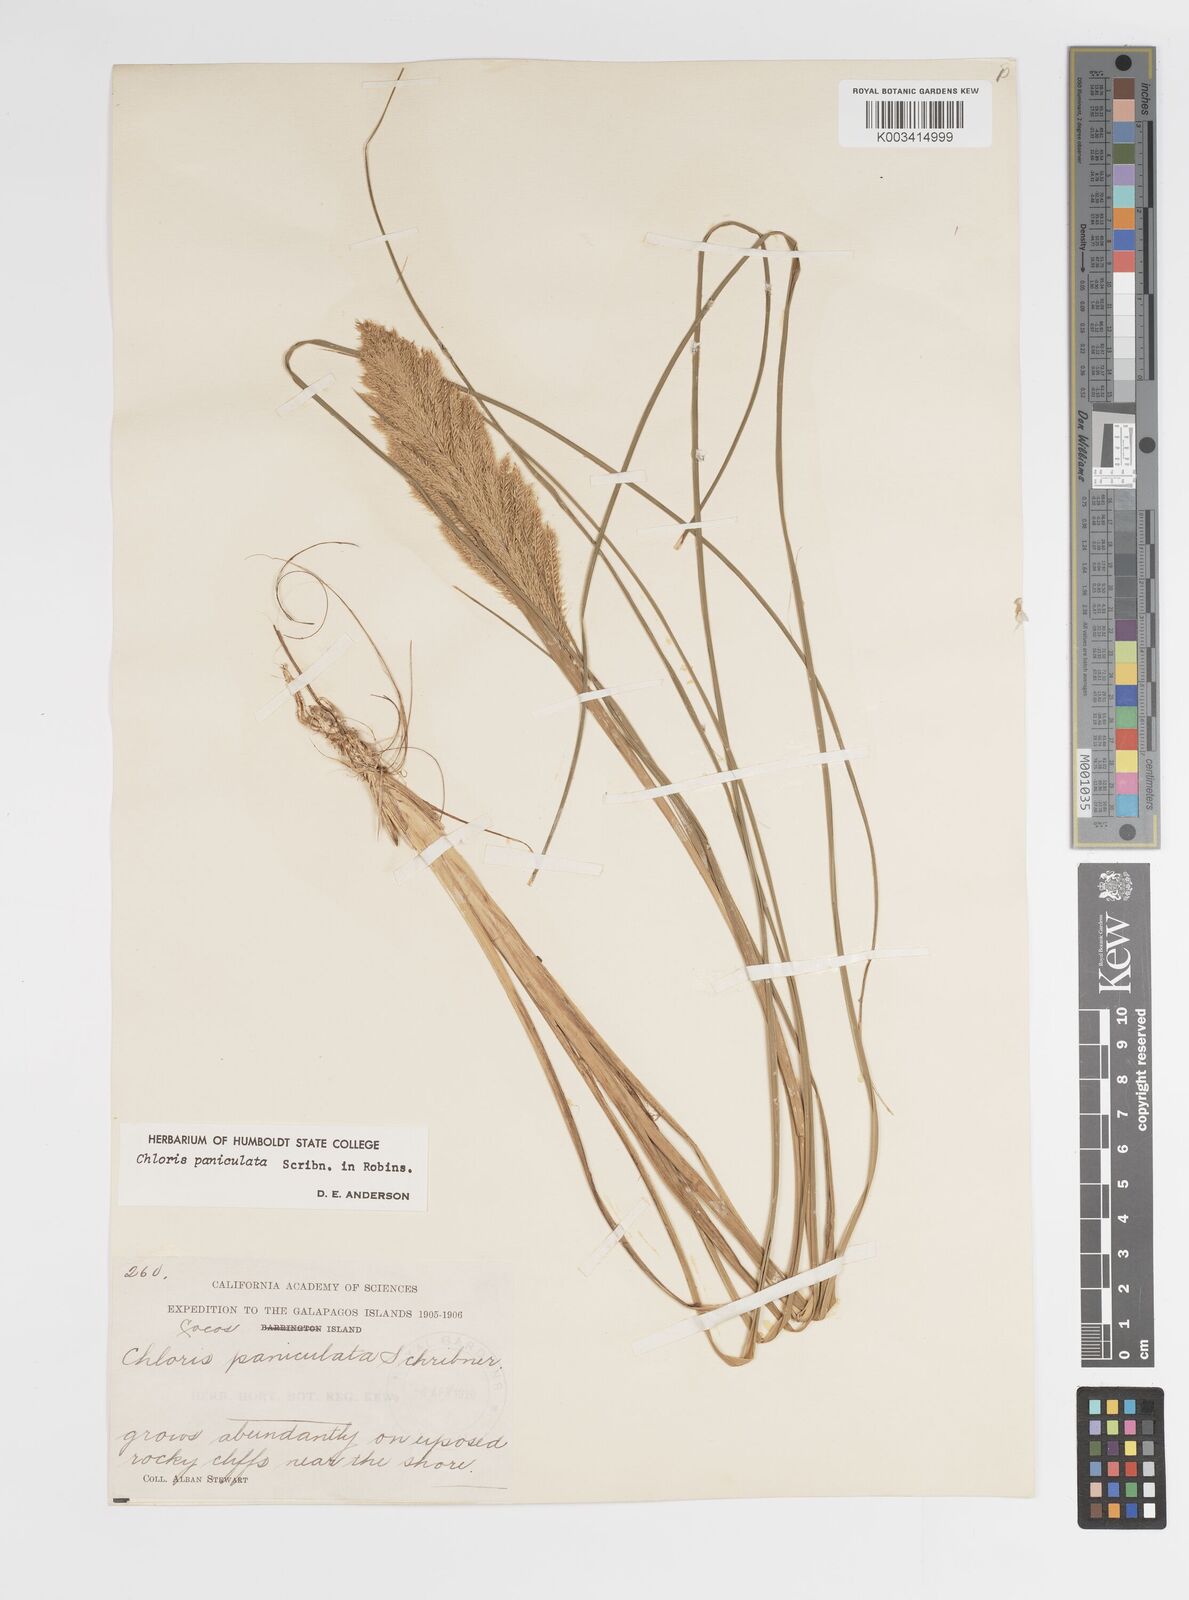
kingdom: Plantae
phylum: Tracheophyta
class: Liliopsida
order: Poales
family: Poaceae
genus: Chloris
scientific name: Chloris paniculata
